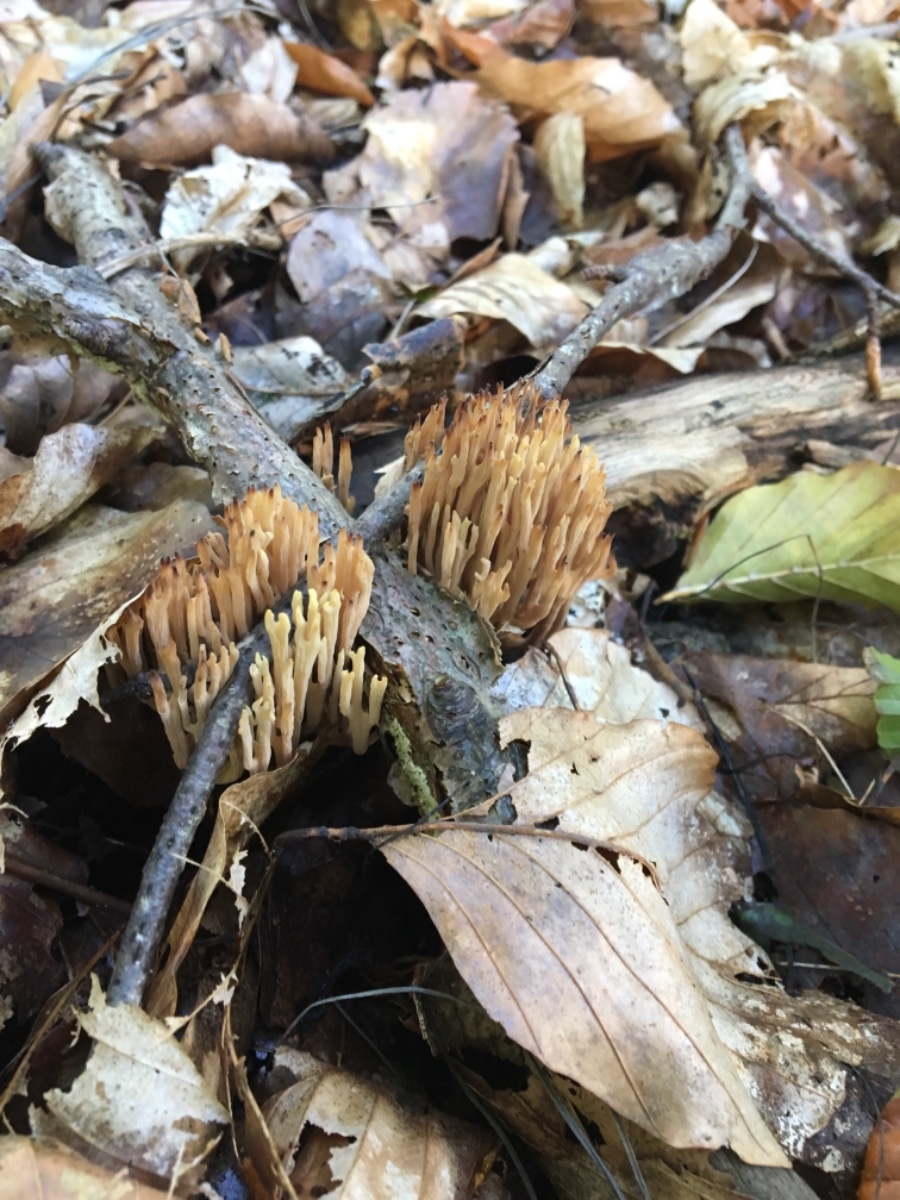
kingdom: Fungi
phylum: Basidiomycota
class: Agaricomycetes
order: Gomphales
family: Gomphaceae
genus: Ramaria
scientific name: Ramaria stricta
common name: rank koralsvamp
